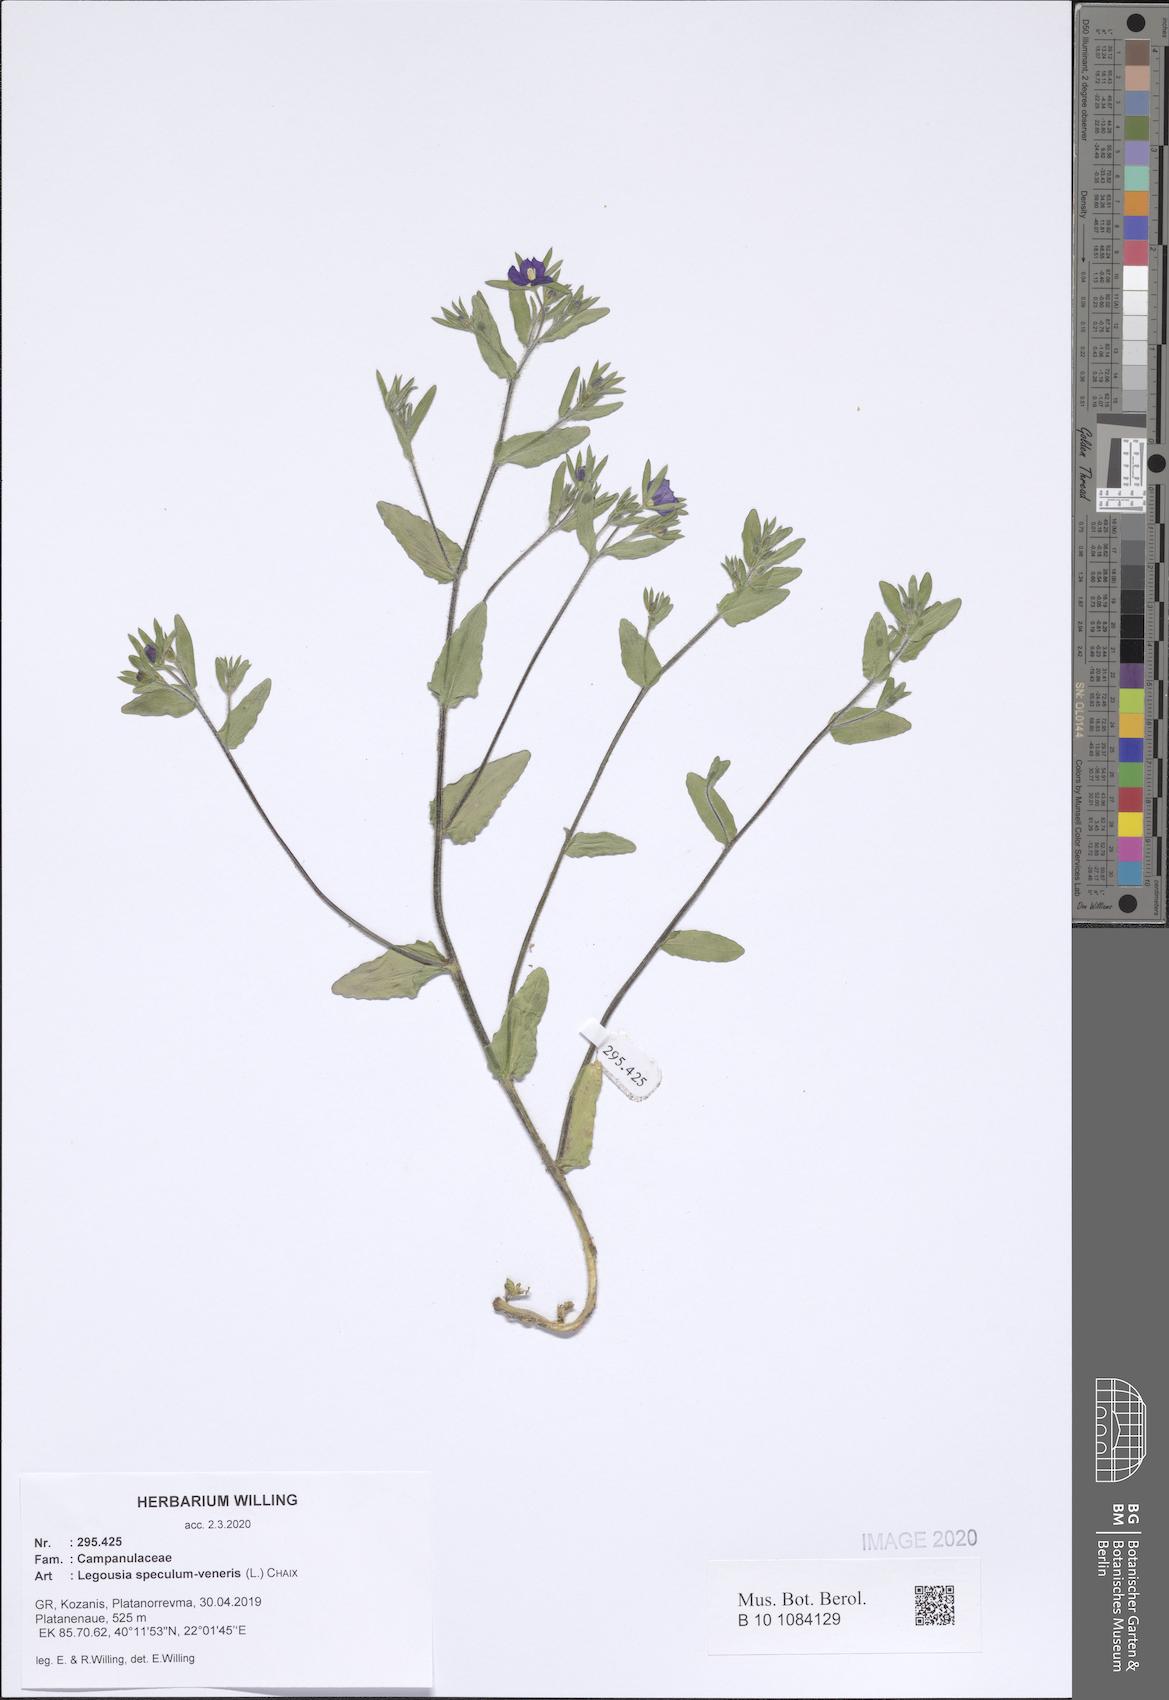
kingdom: Plantae
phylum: Tracheophyta
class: Magnoliopsida
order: Asterales
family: Campanulaceae
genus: Legousia
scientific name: Legousia speculum-veneris
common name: Large venus's-looking-glass
